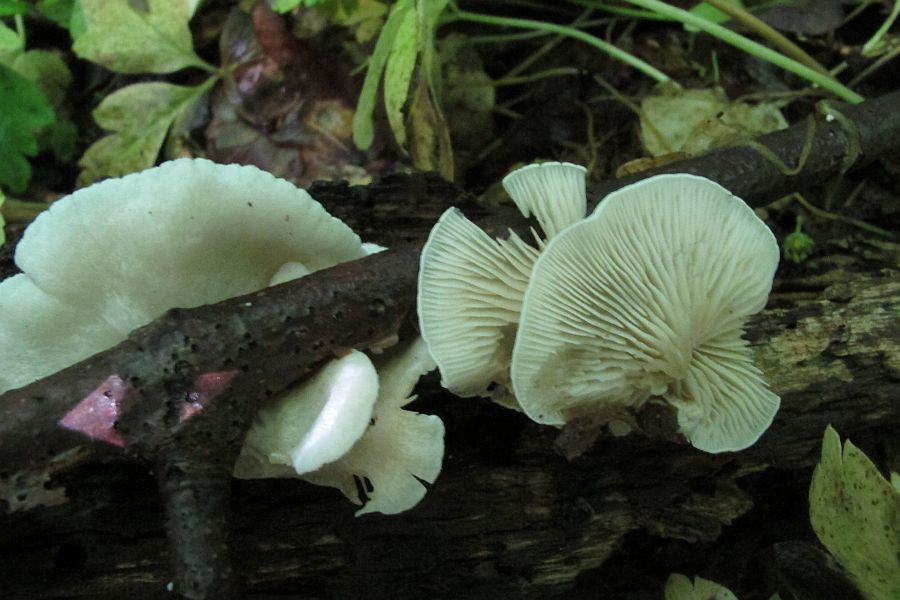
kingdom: Fungi
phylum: Basidiomycota
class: Agaricomycetes
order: Agaricales
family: Crepidotaceae
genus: Crepidotus
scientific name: Crepidotus caspari
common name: Lundells muslingesvamp
